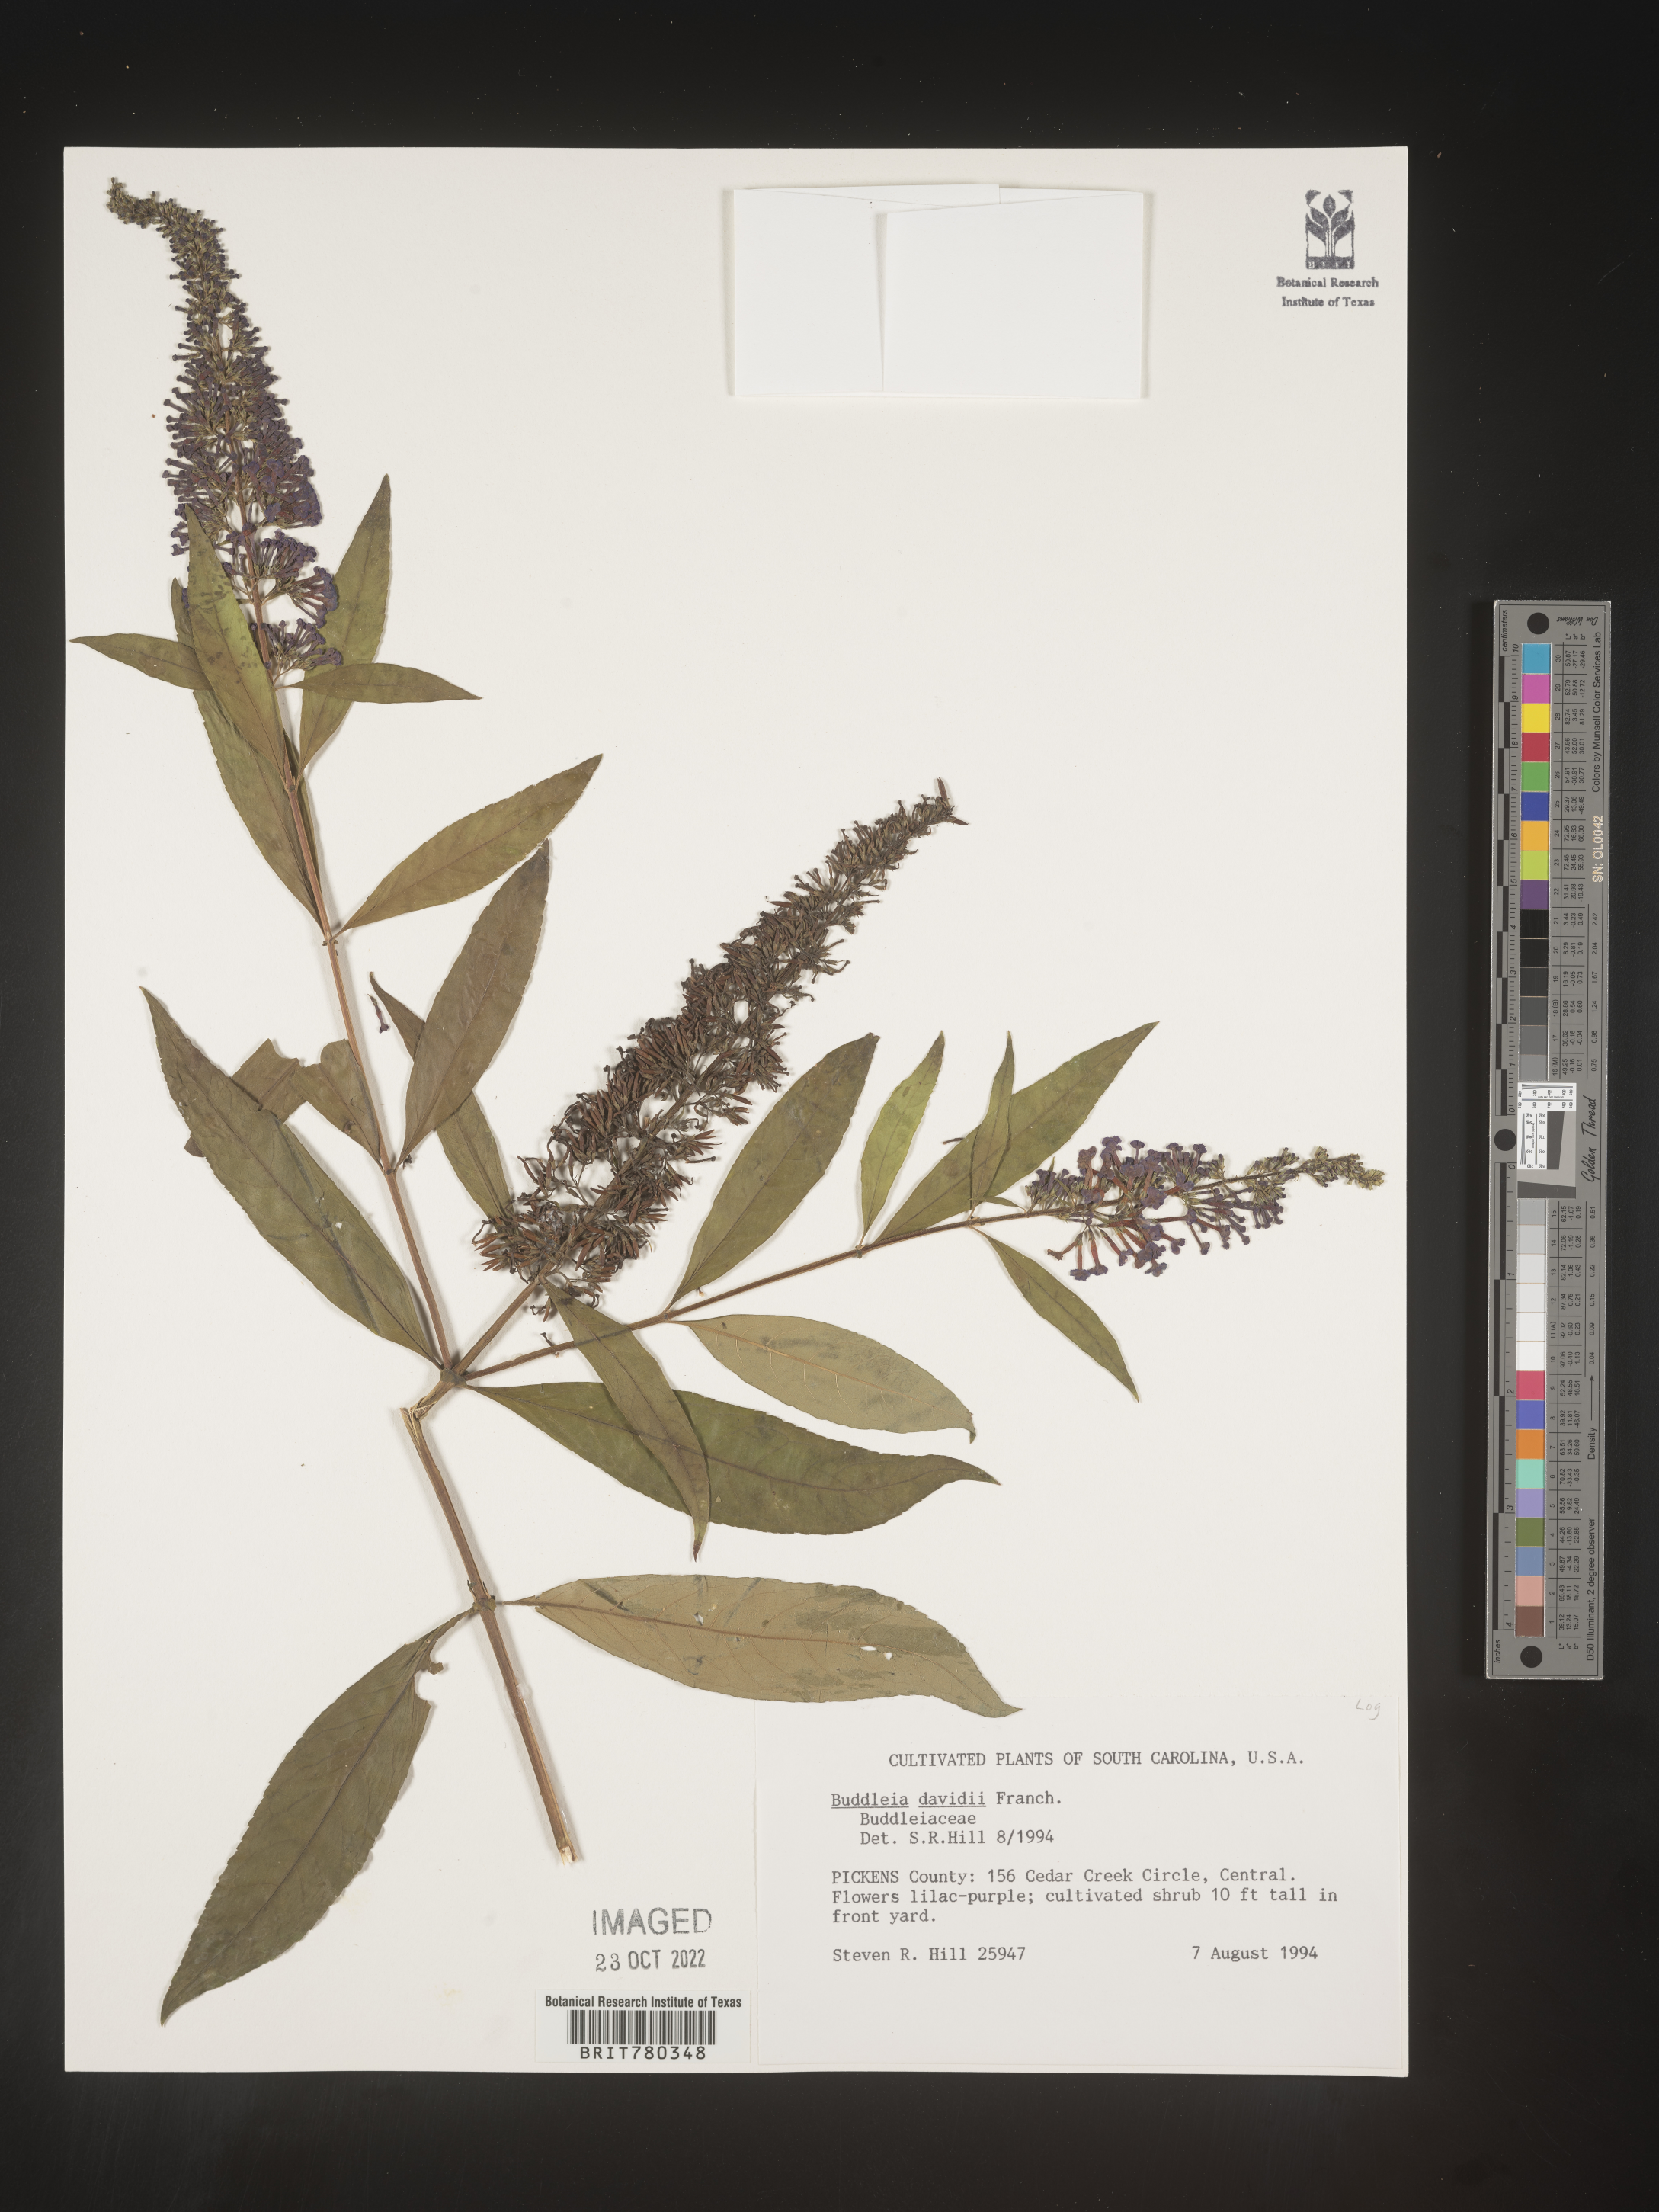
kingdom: Plantae
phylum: Tracheophyta
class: Magnoliopsida
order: Lamiales
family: Scrophulariaceae
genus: Buddleja
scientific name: Buddleja
